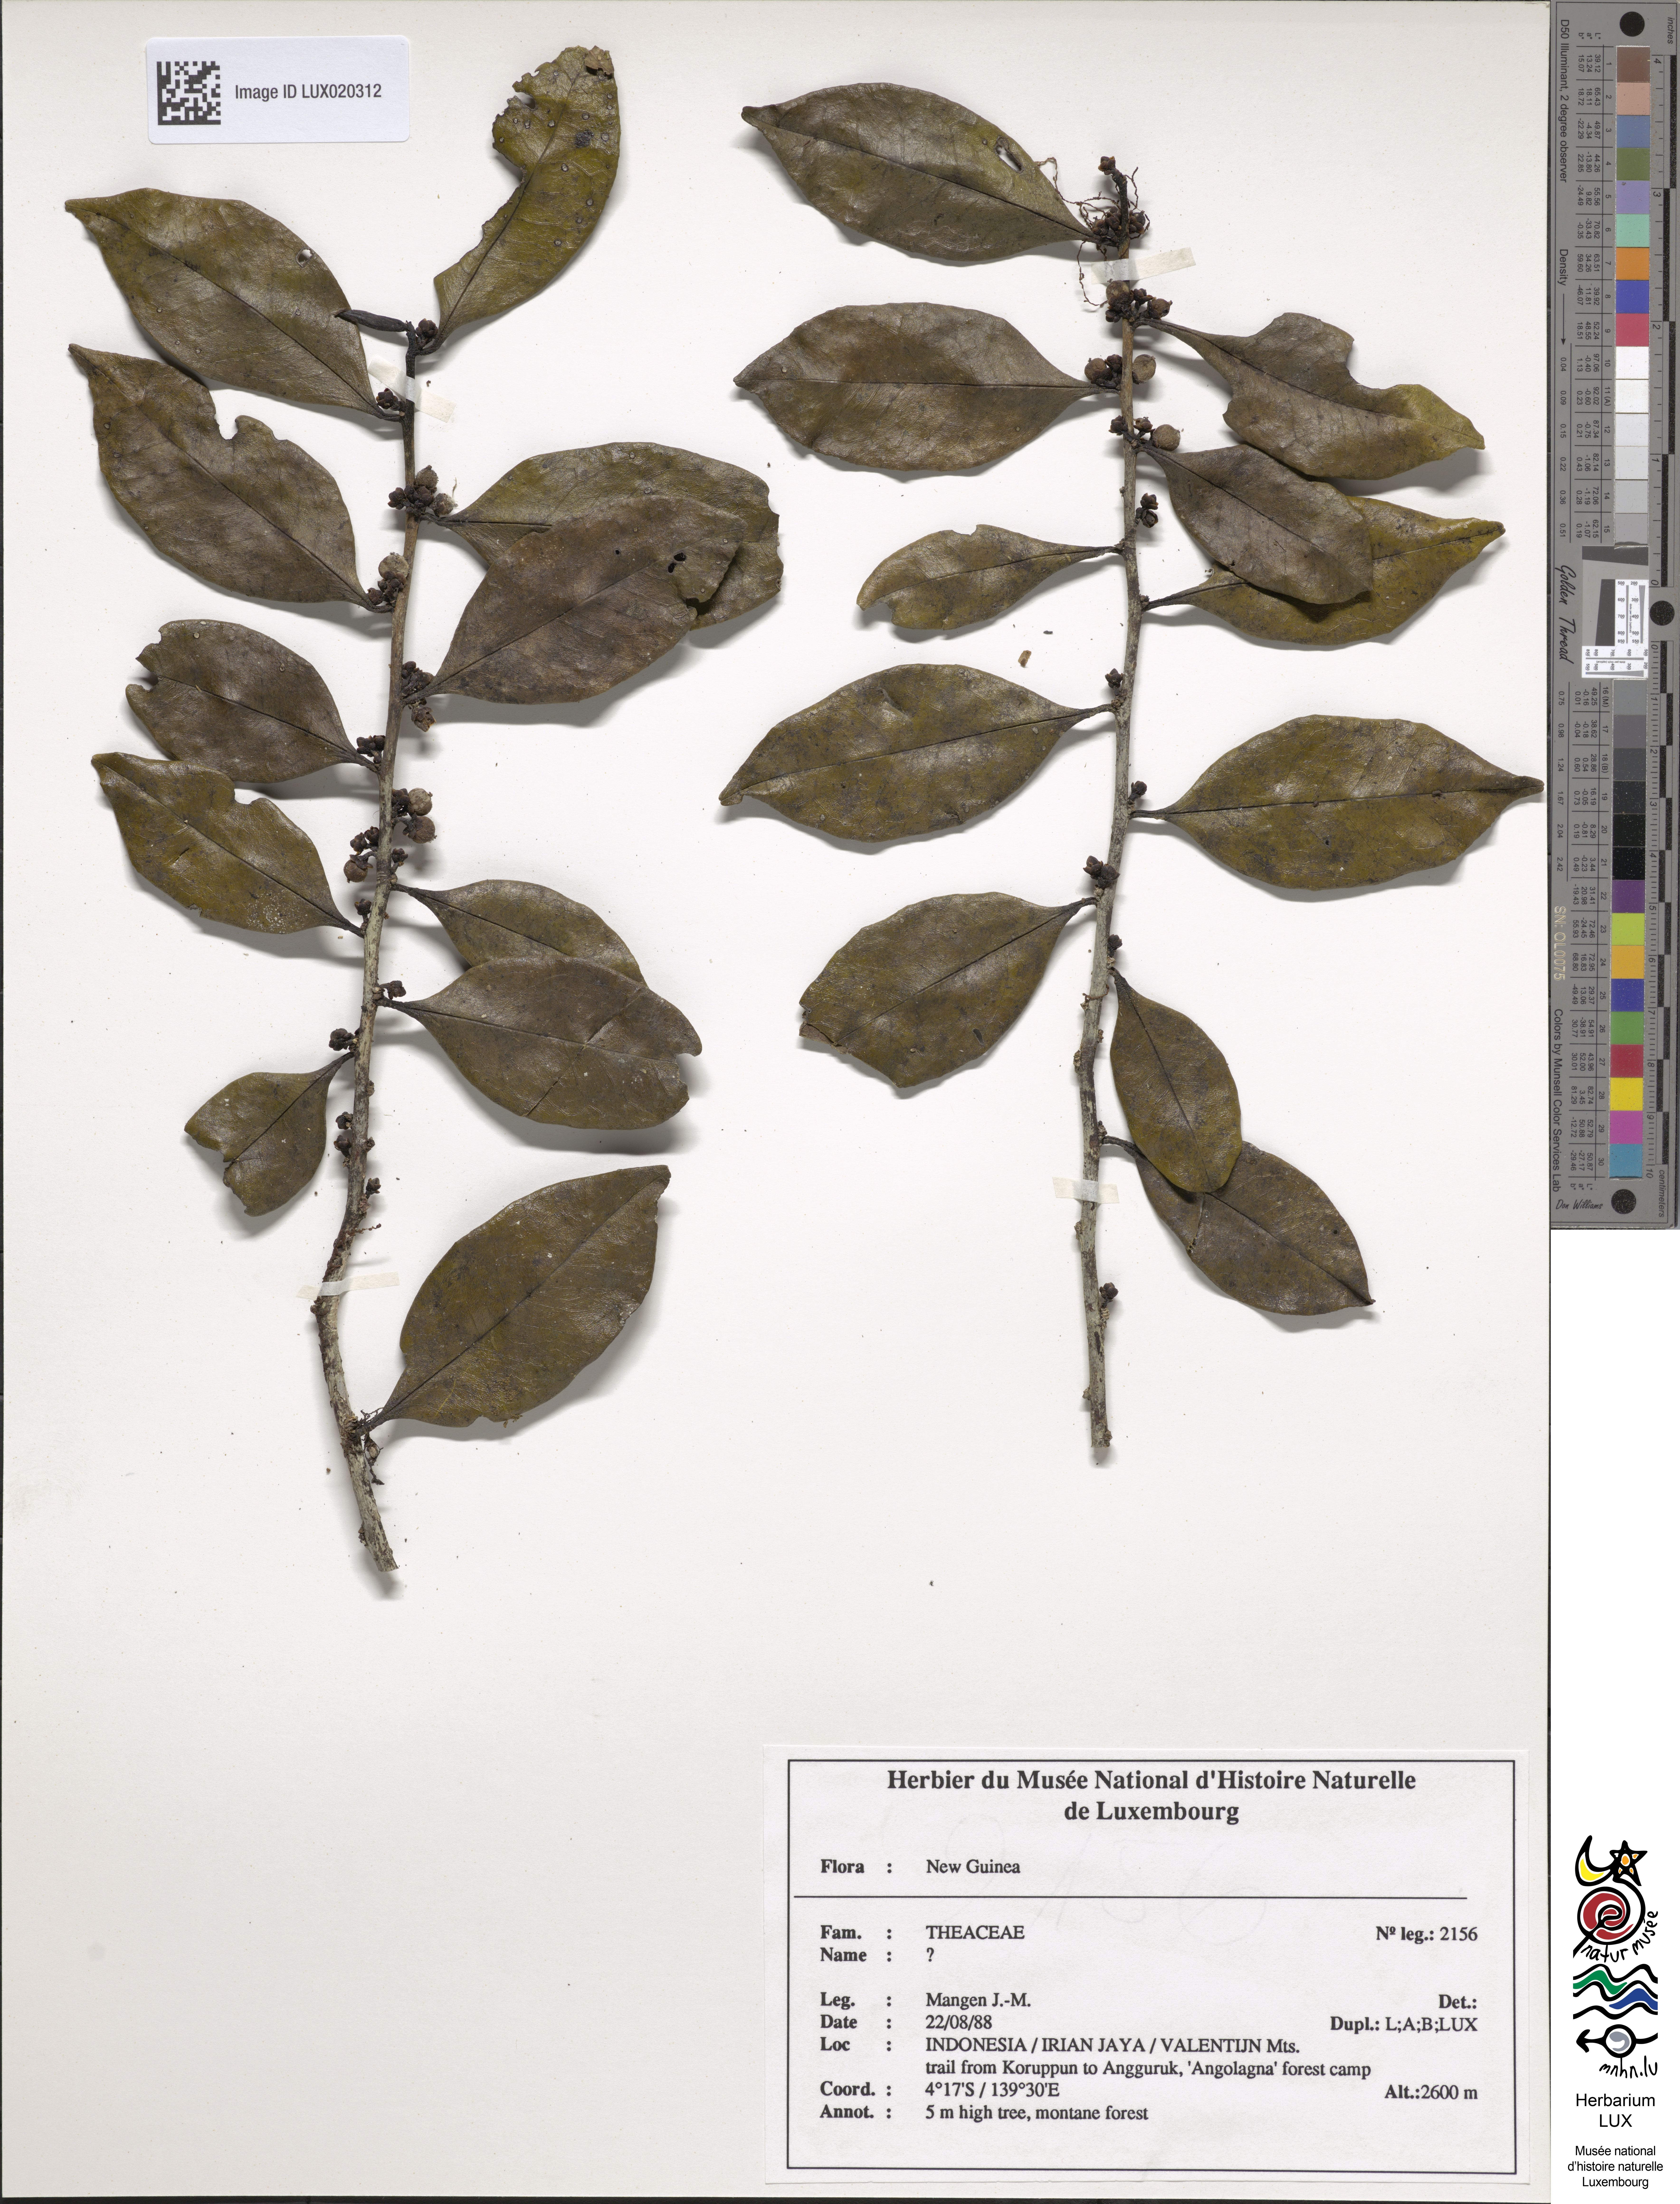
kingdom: Plantae
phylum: Tracheophyta
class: Magnoliopsida
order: Ericales
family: Theaceae
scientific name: Theaceae
